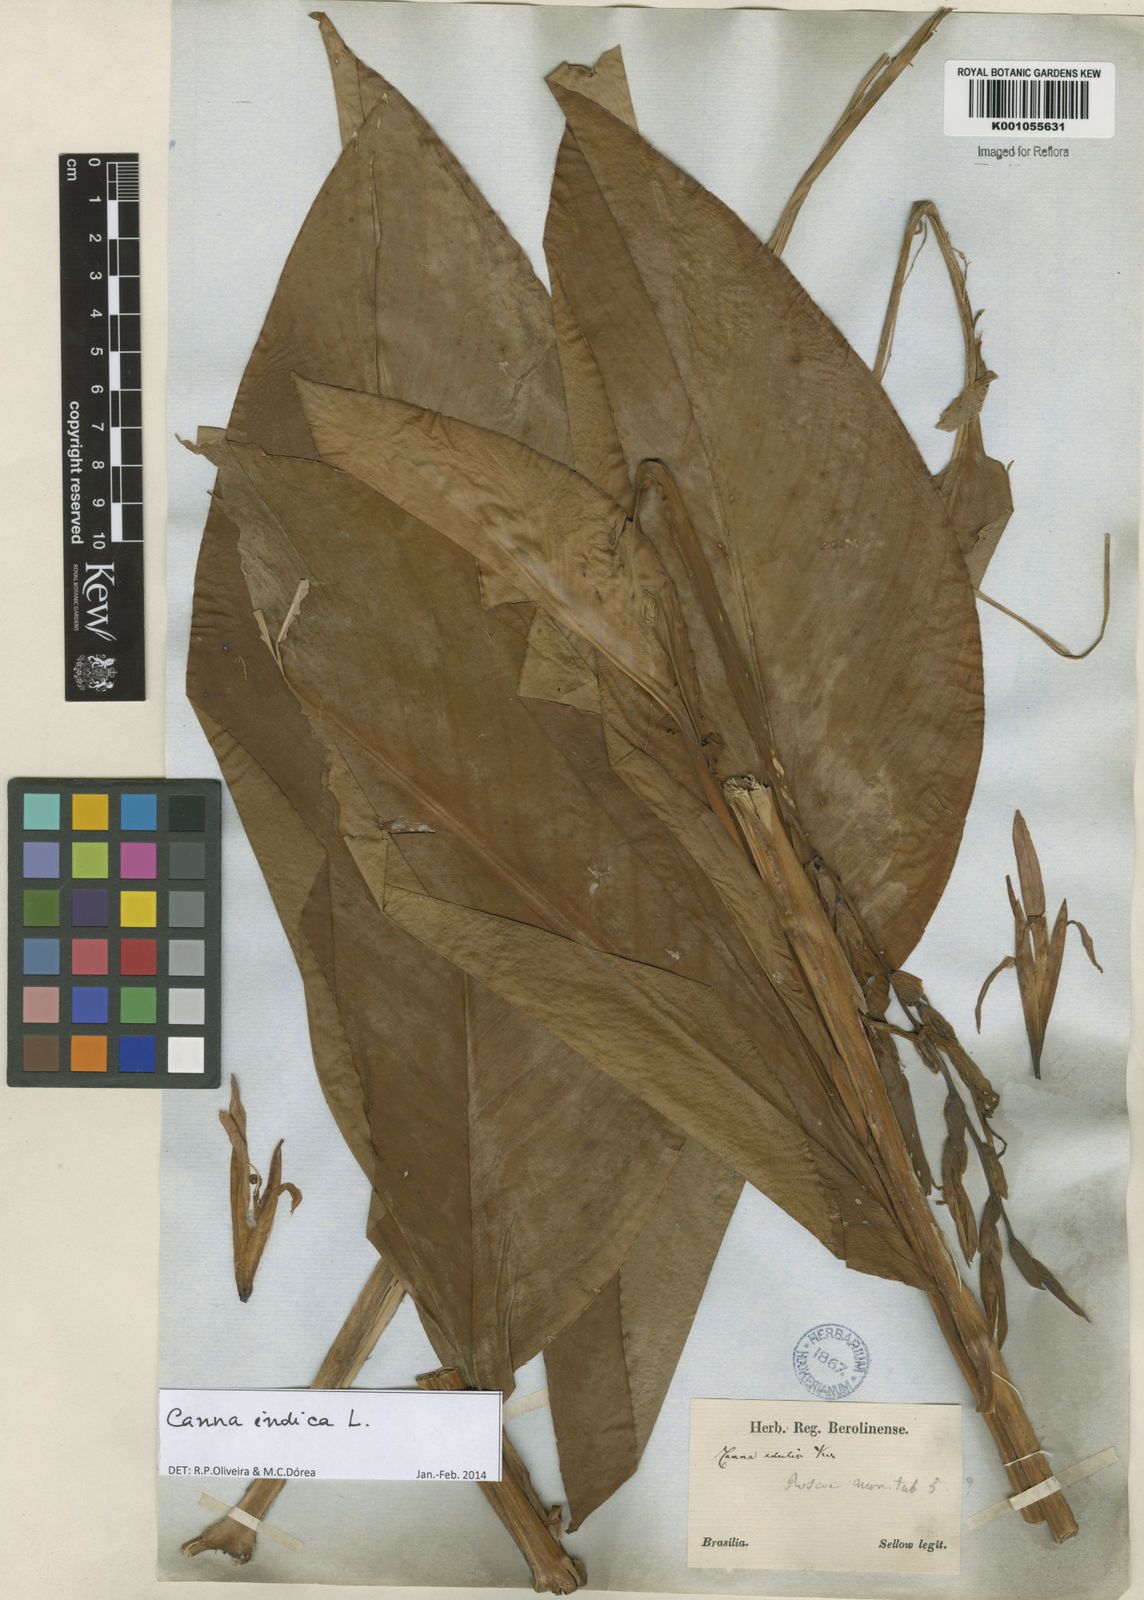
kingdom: Plantae
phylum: Tracheophyta
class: Liliopsida
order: Zingiberales
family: Cannaceae
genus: Canna
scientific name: Canna indica
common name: Indian shot
